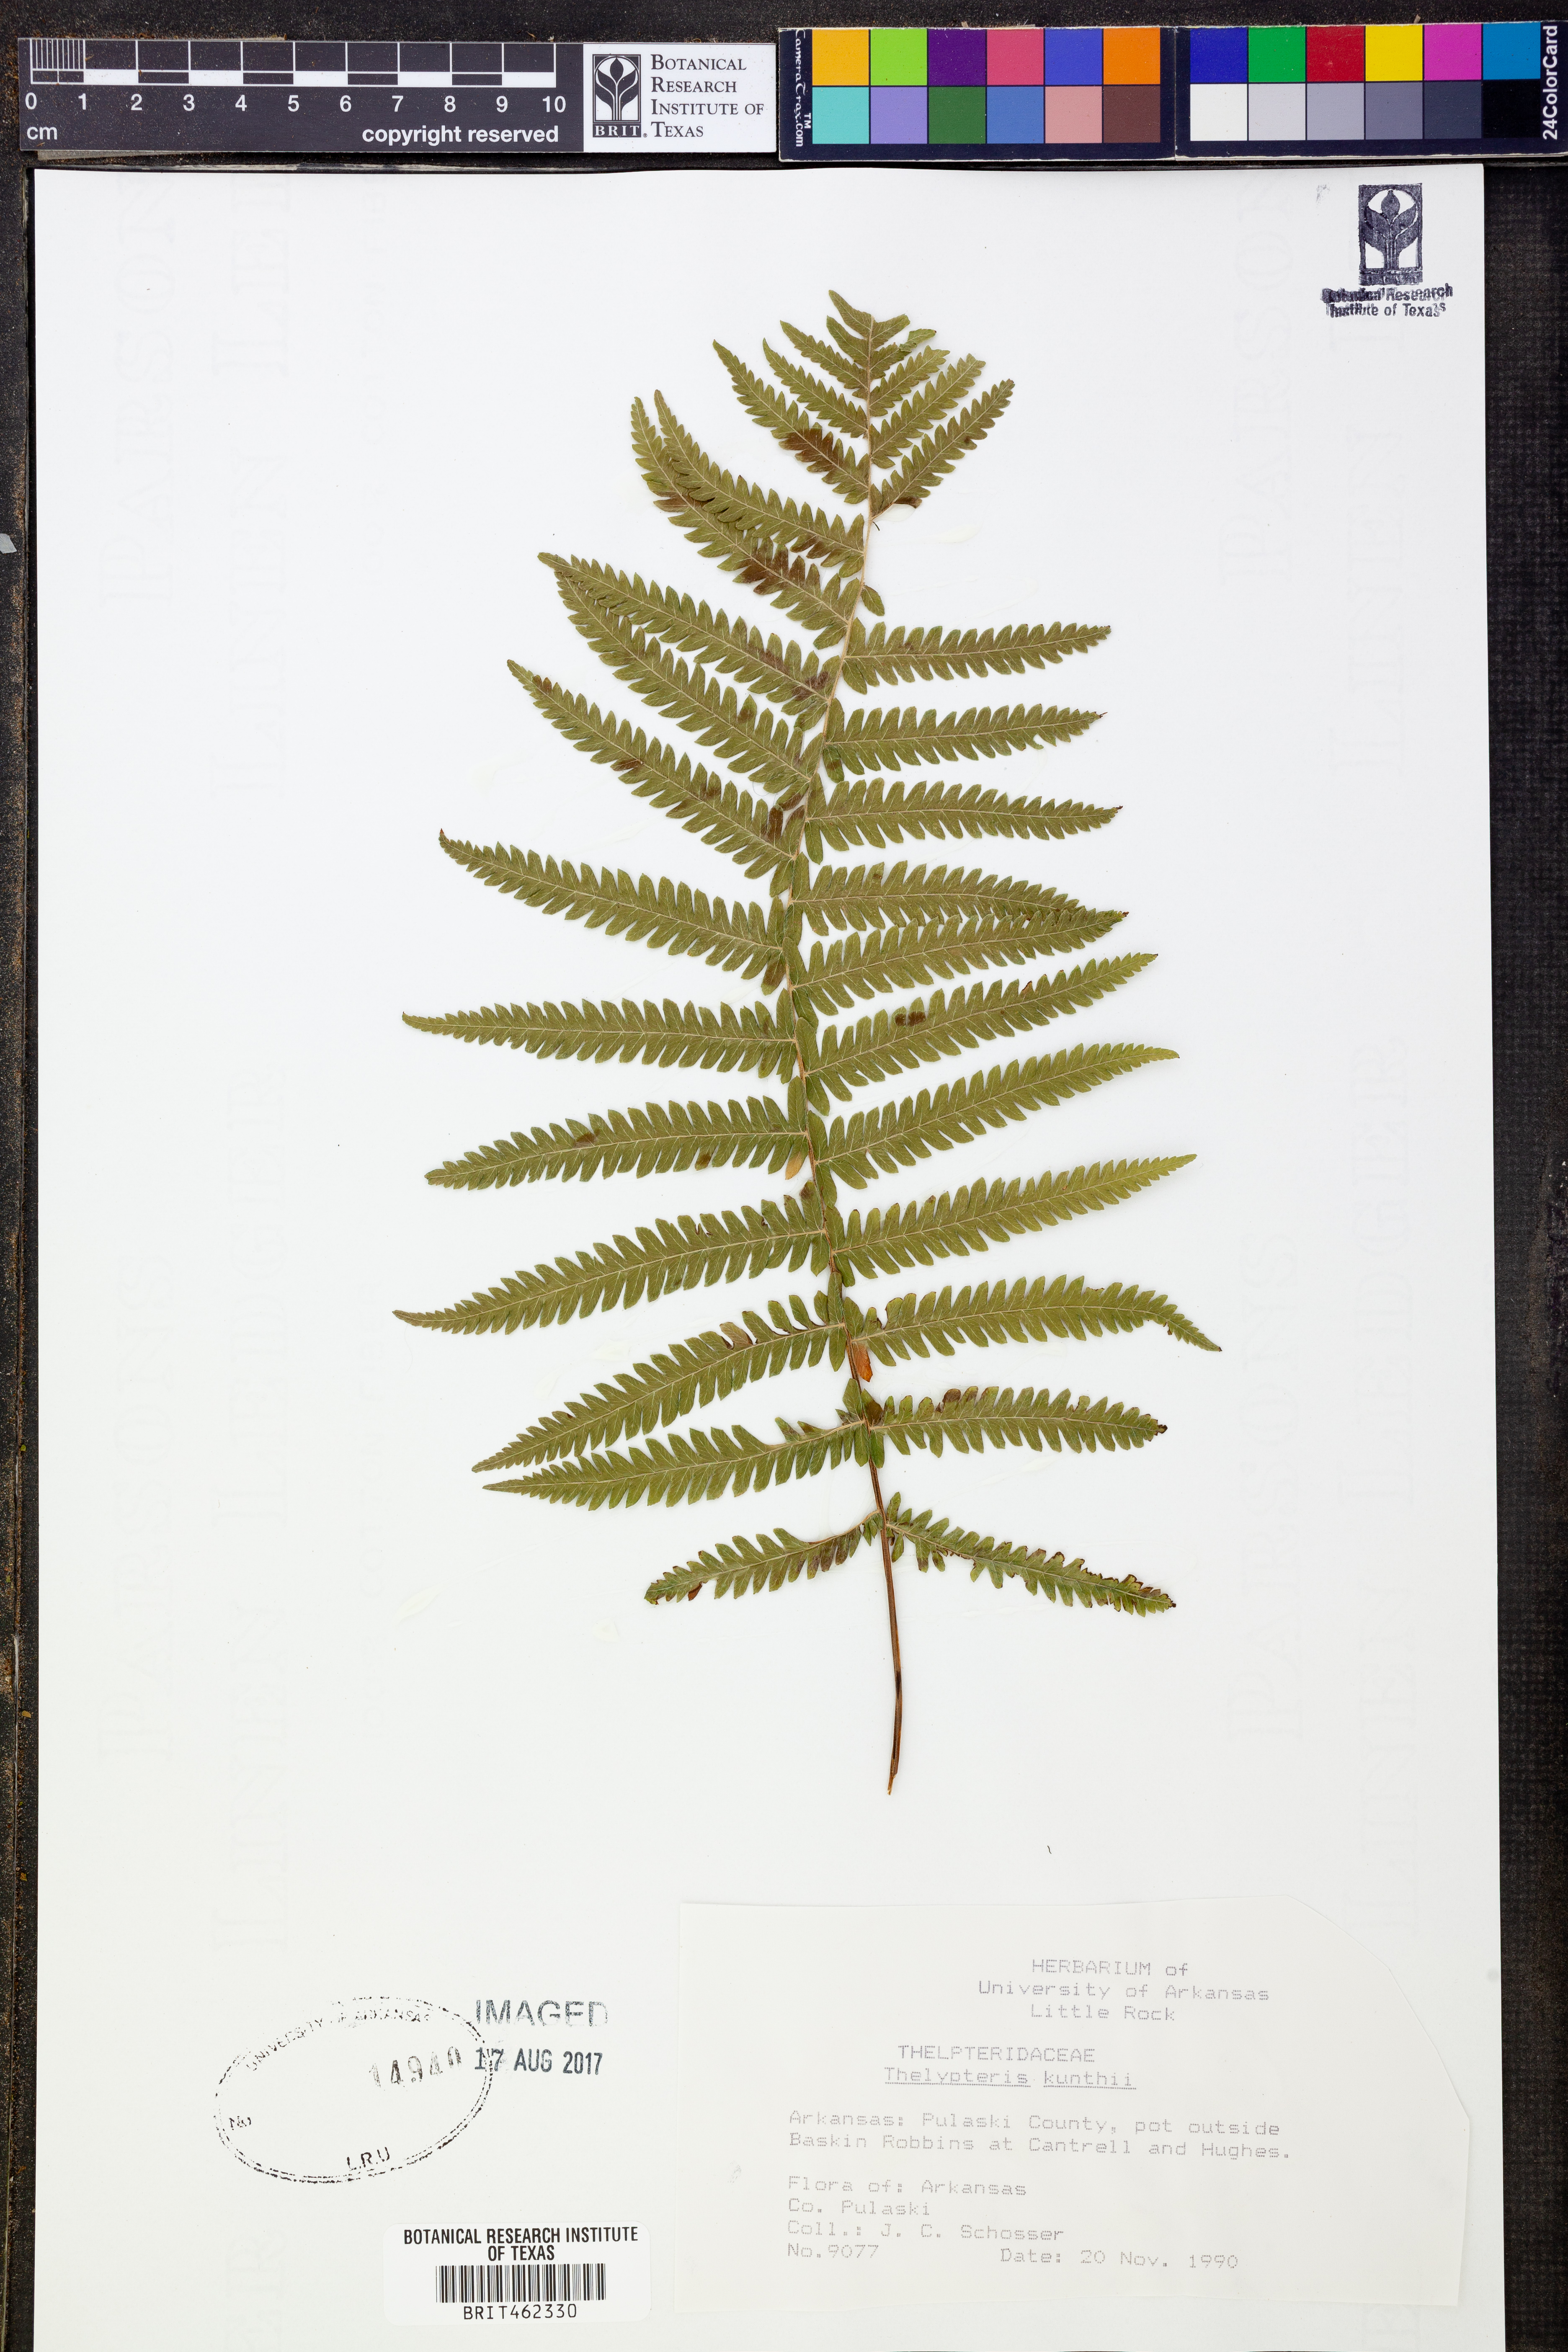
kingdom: Plantae
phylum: Tracheophyta
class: Polypodiopsida
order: Polypodiales
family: Thelypteridaceae
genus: Pelazoneuron
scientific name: Pelazoneuron kunthii
